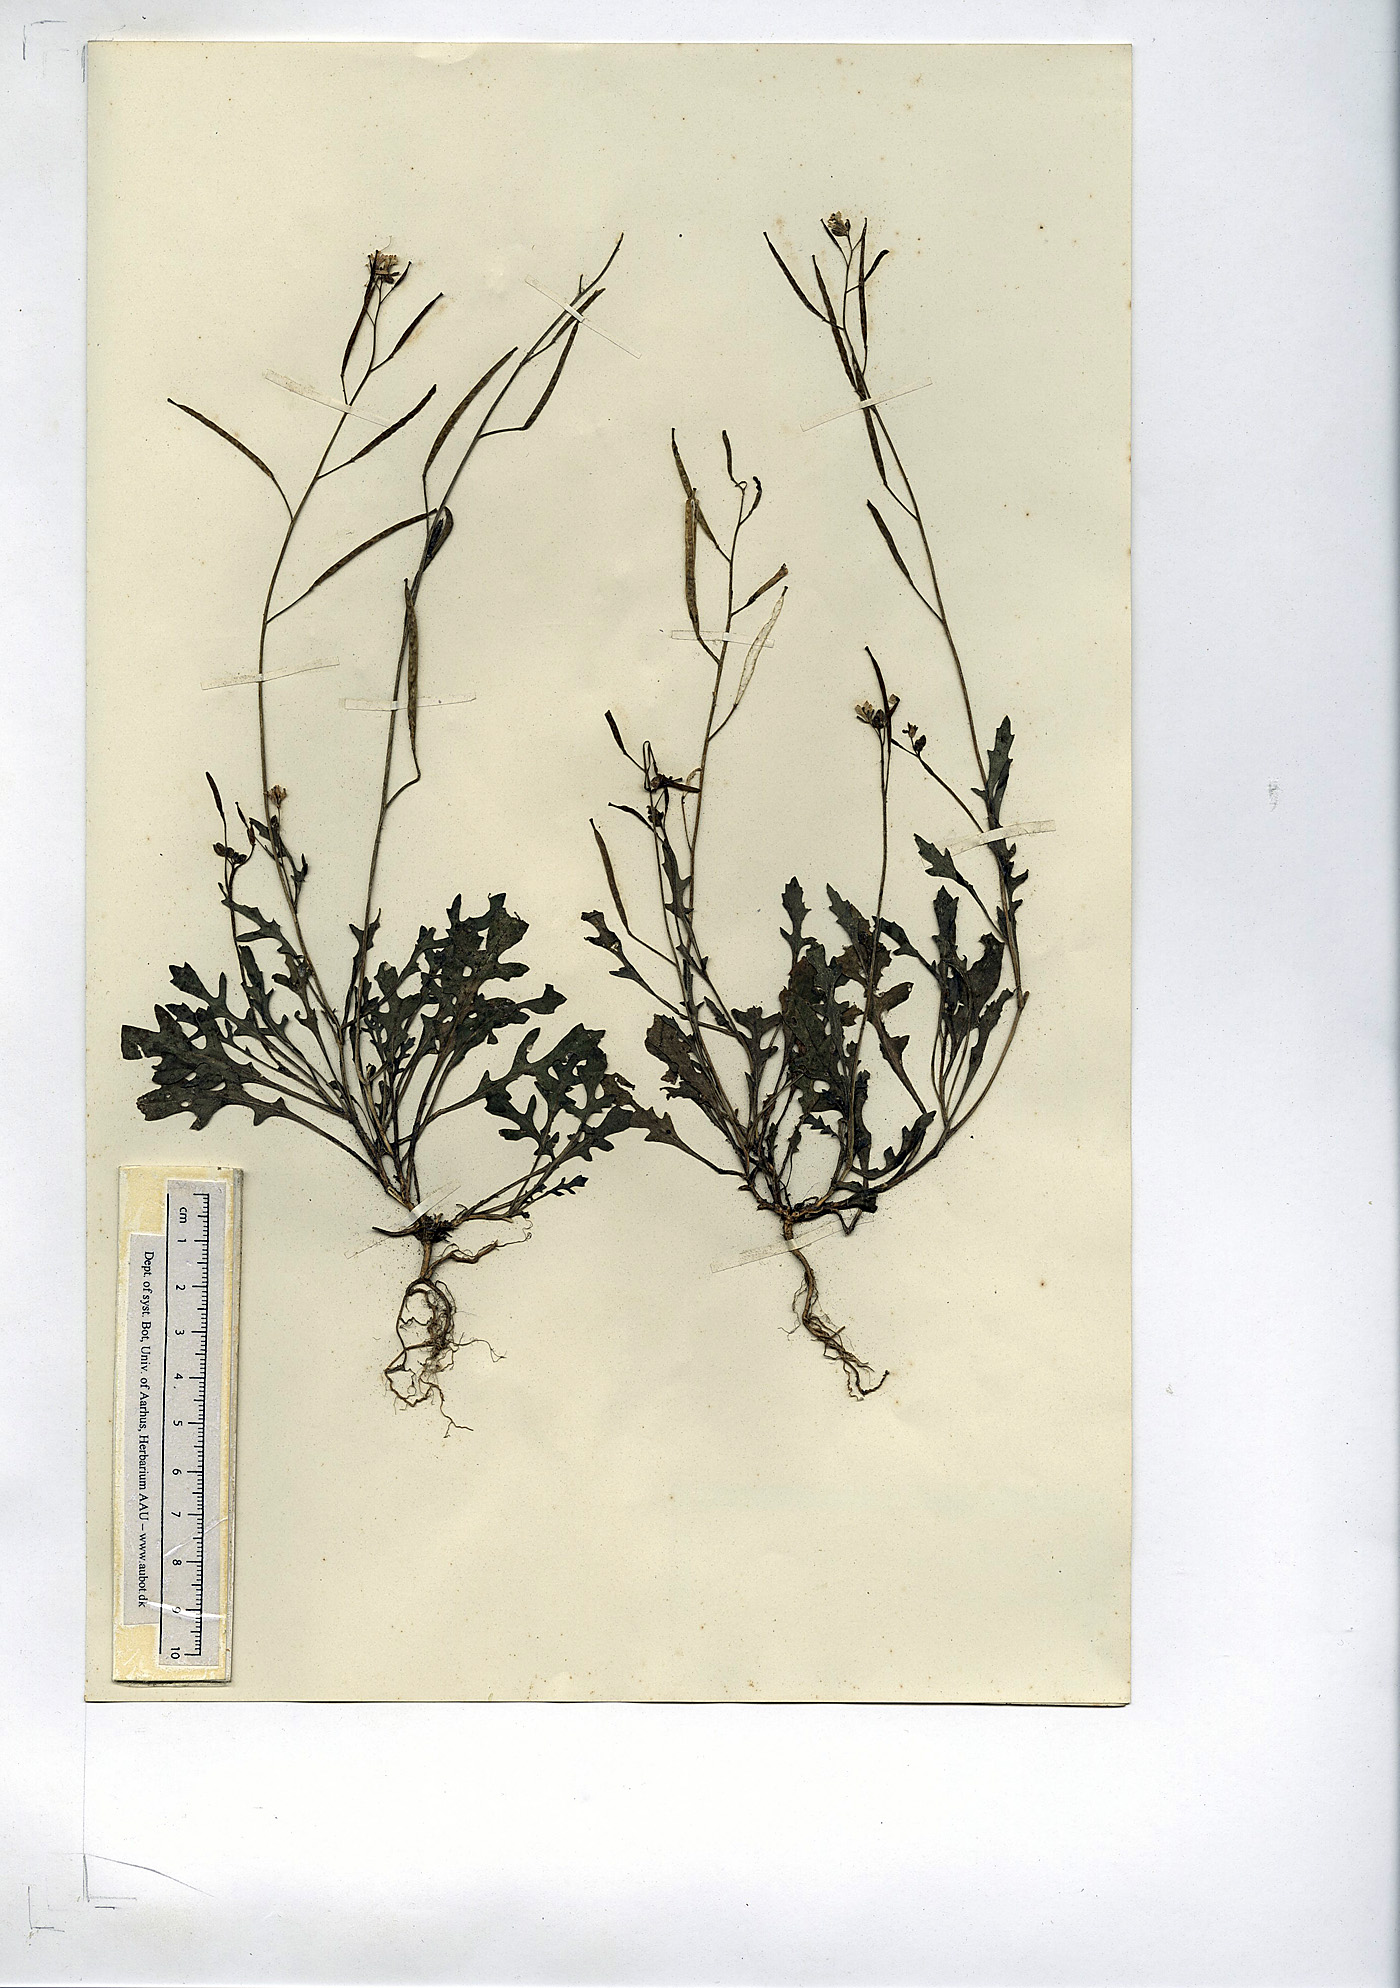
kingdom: Plantae
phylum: Tracheophyta
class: Magnoliopsida
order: Brassicales
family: Brassicaceae
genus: Diplotaxis
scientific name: Diplotaxis muralis
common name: Annual wall-rocket
